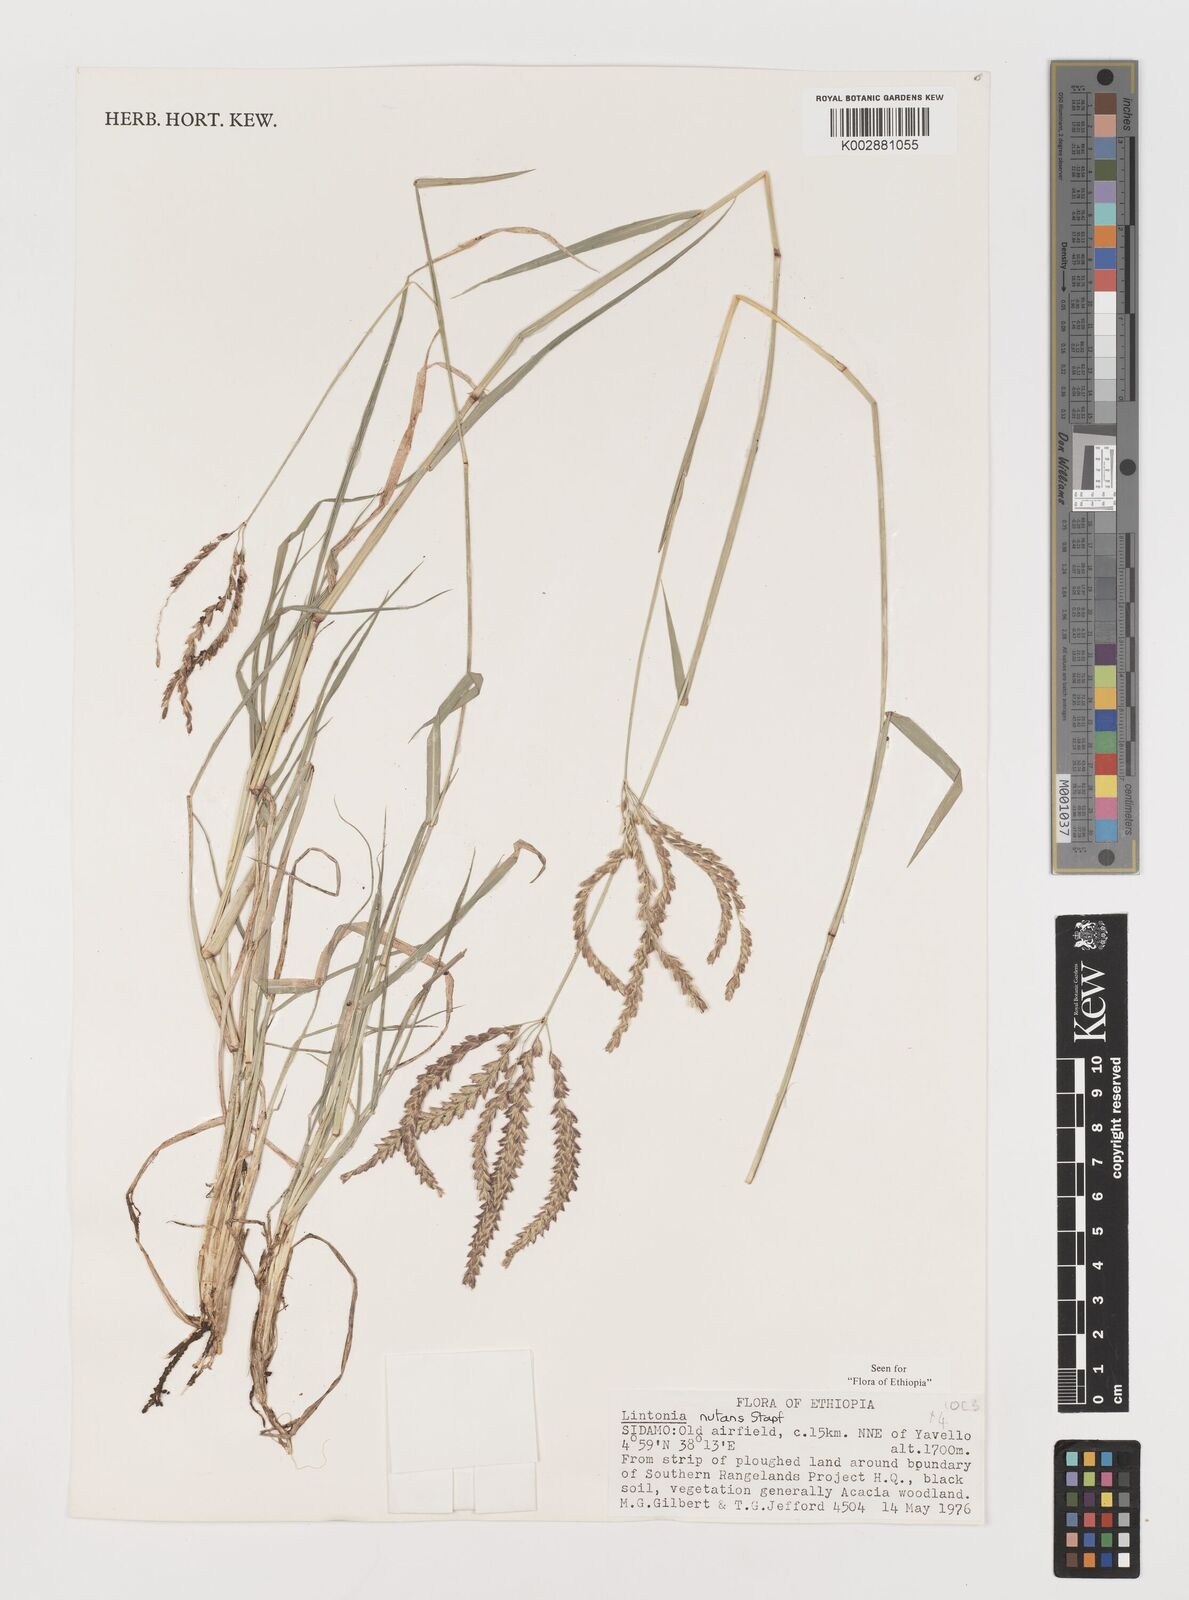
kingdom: Plantae
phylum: Tracheophyta
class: Liliopsida
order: Poales
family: Poaceae
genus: Chloris
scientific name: Chloris nutans
